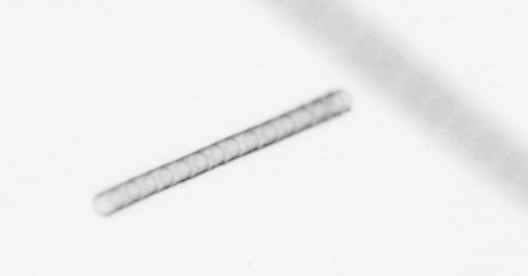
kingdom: Chromista
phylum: Ochrophyta
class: Bacillariophyceae
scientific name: Bacillariophyceae
